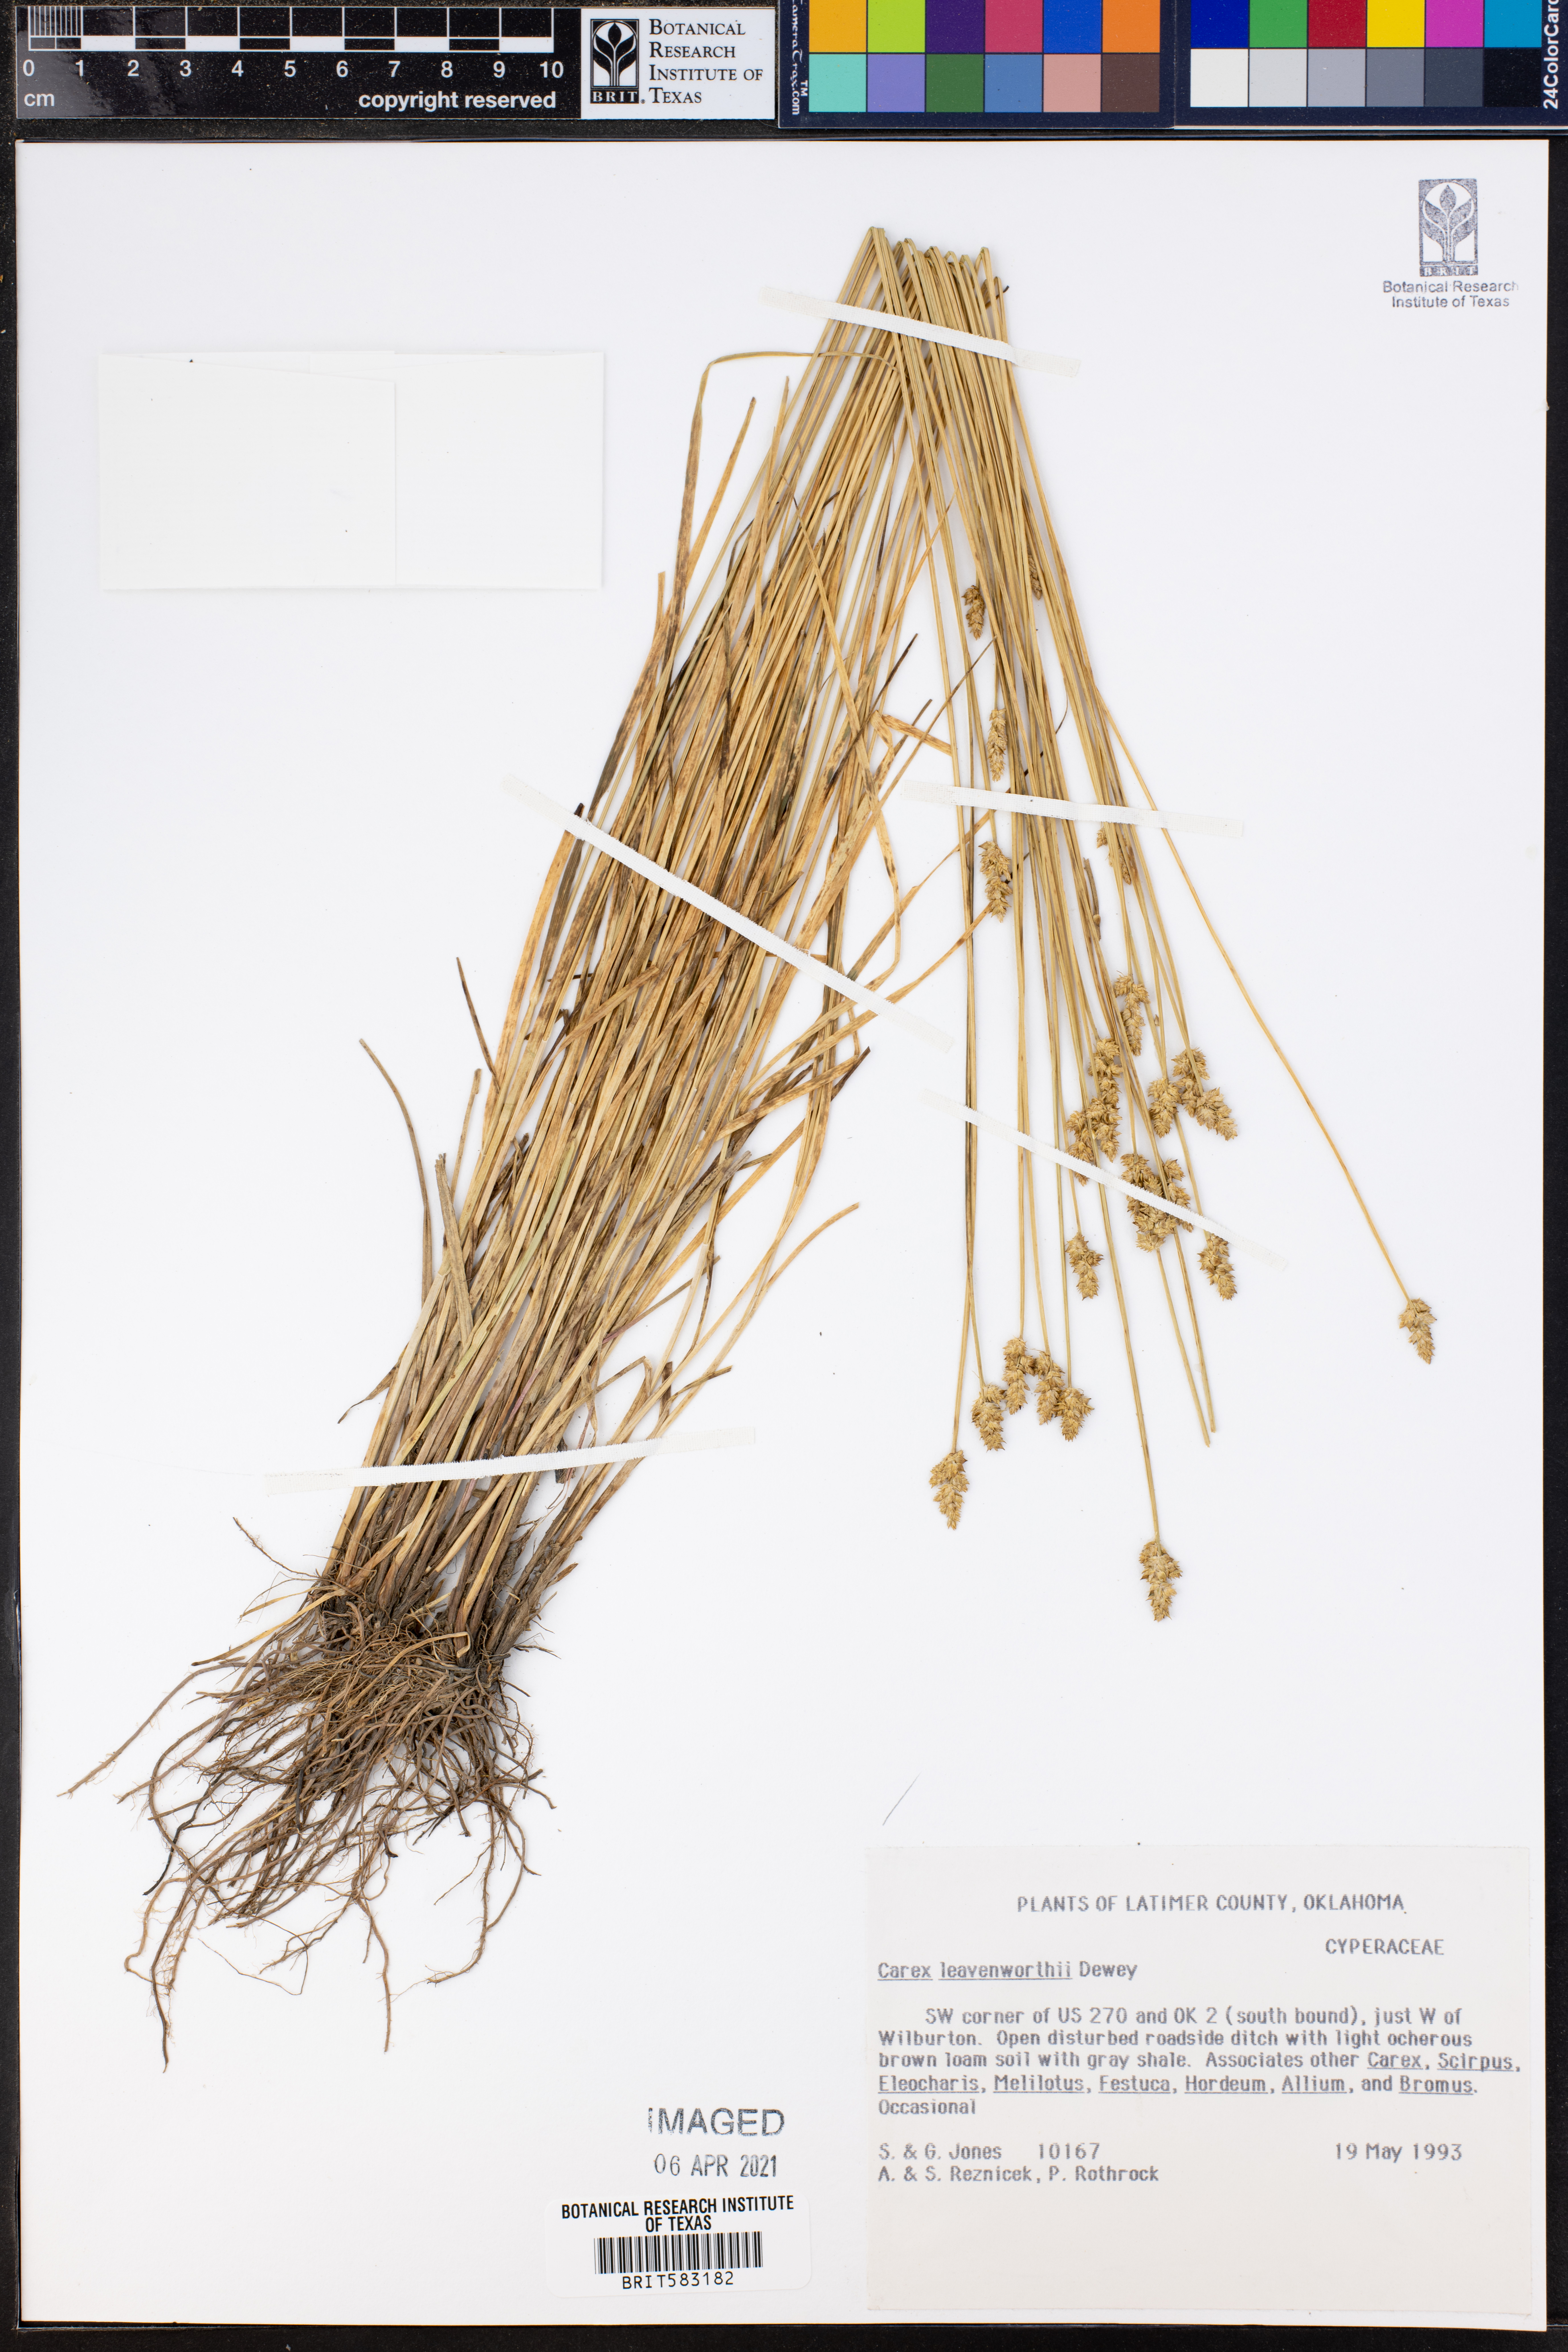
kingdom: Plantae
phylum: Tracheophyta
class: Liliopsida
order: Poales
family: Cyperaceae
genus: Carex
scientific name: Carex leavenworthii
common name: Leavenworth's bracted sedge
